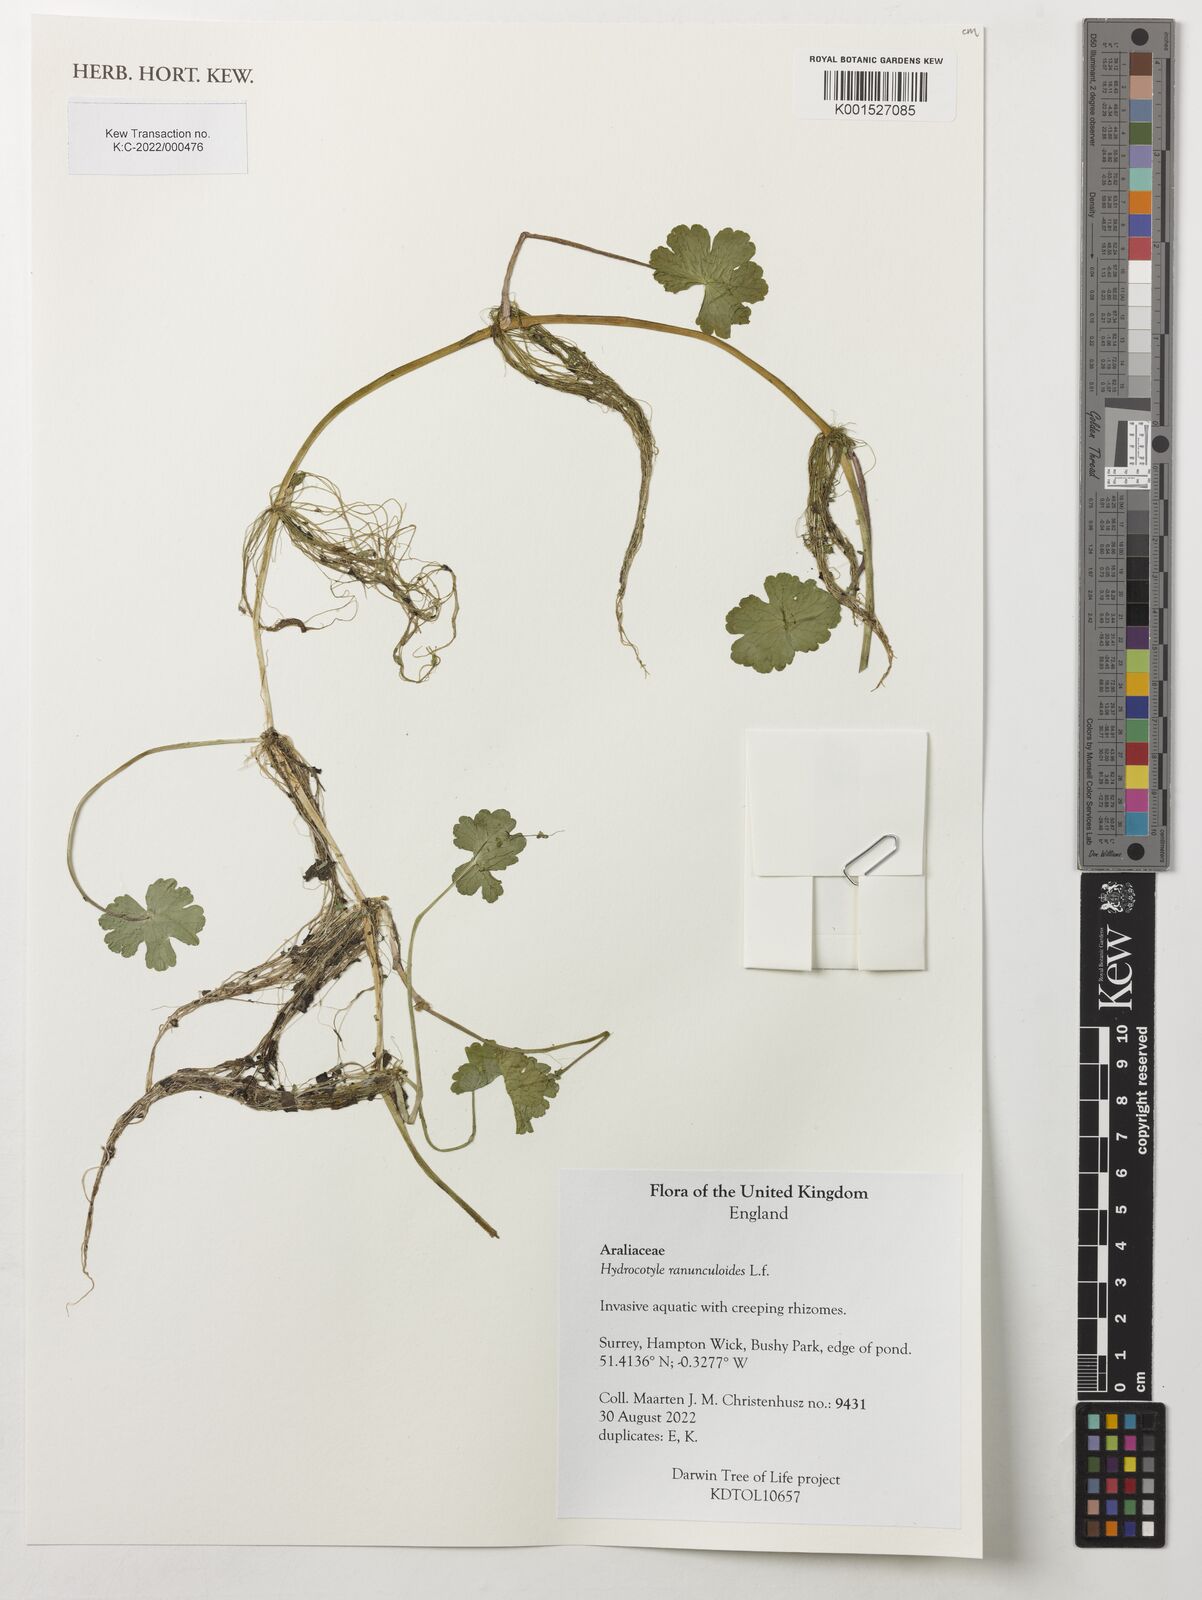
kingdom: Plantae
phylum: Tracheophyta
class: Magnoliopsida
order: Apiales
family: Araliaceae
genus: Hydrocotyle
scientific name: Hydrocotyle ranunculoides
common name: Floating pennywort
